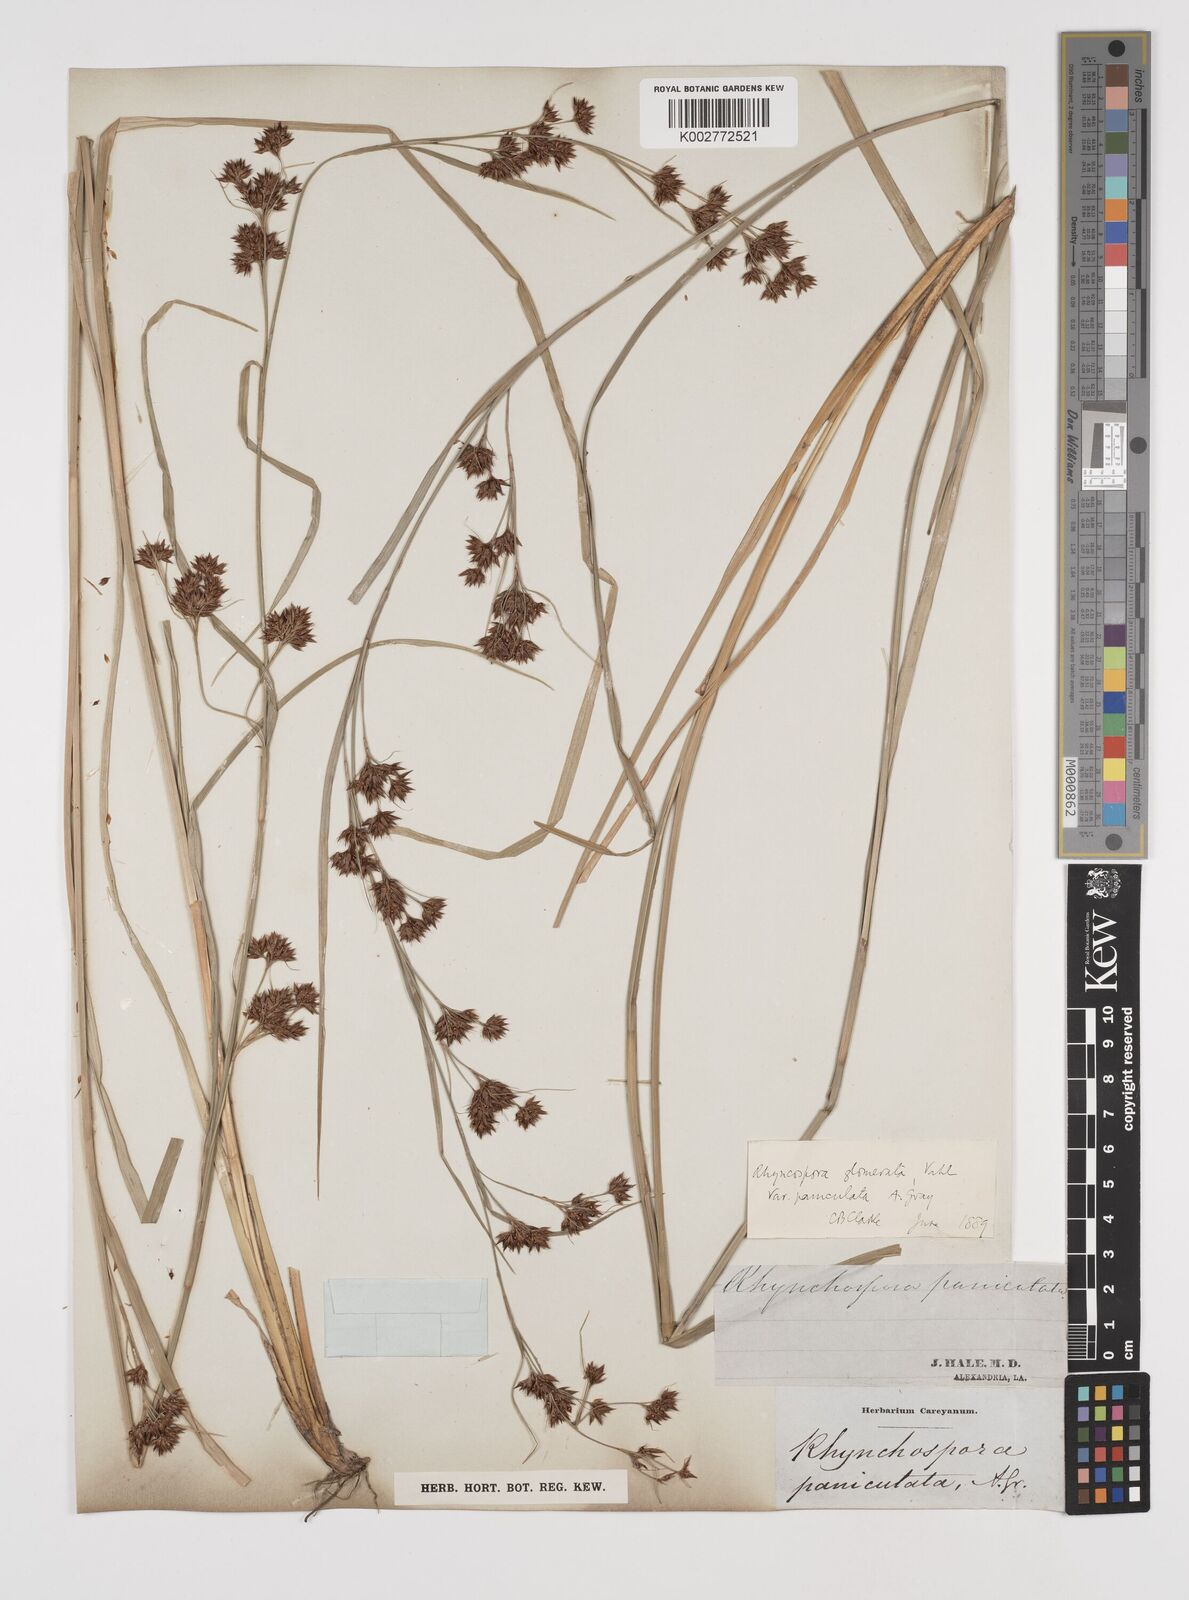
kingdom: Plantae
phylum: Tracheophyta
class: Liliopsida
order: Poales
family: Cyperaceae
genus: Rhynchospora
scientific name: Rhynchospora glomerata
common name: Cluster beak sedge
